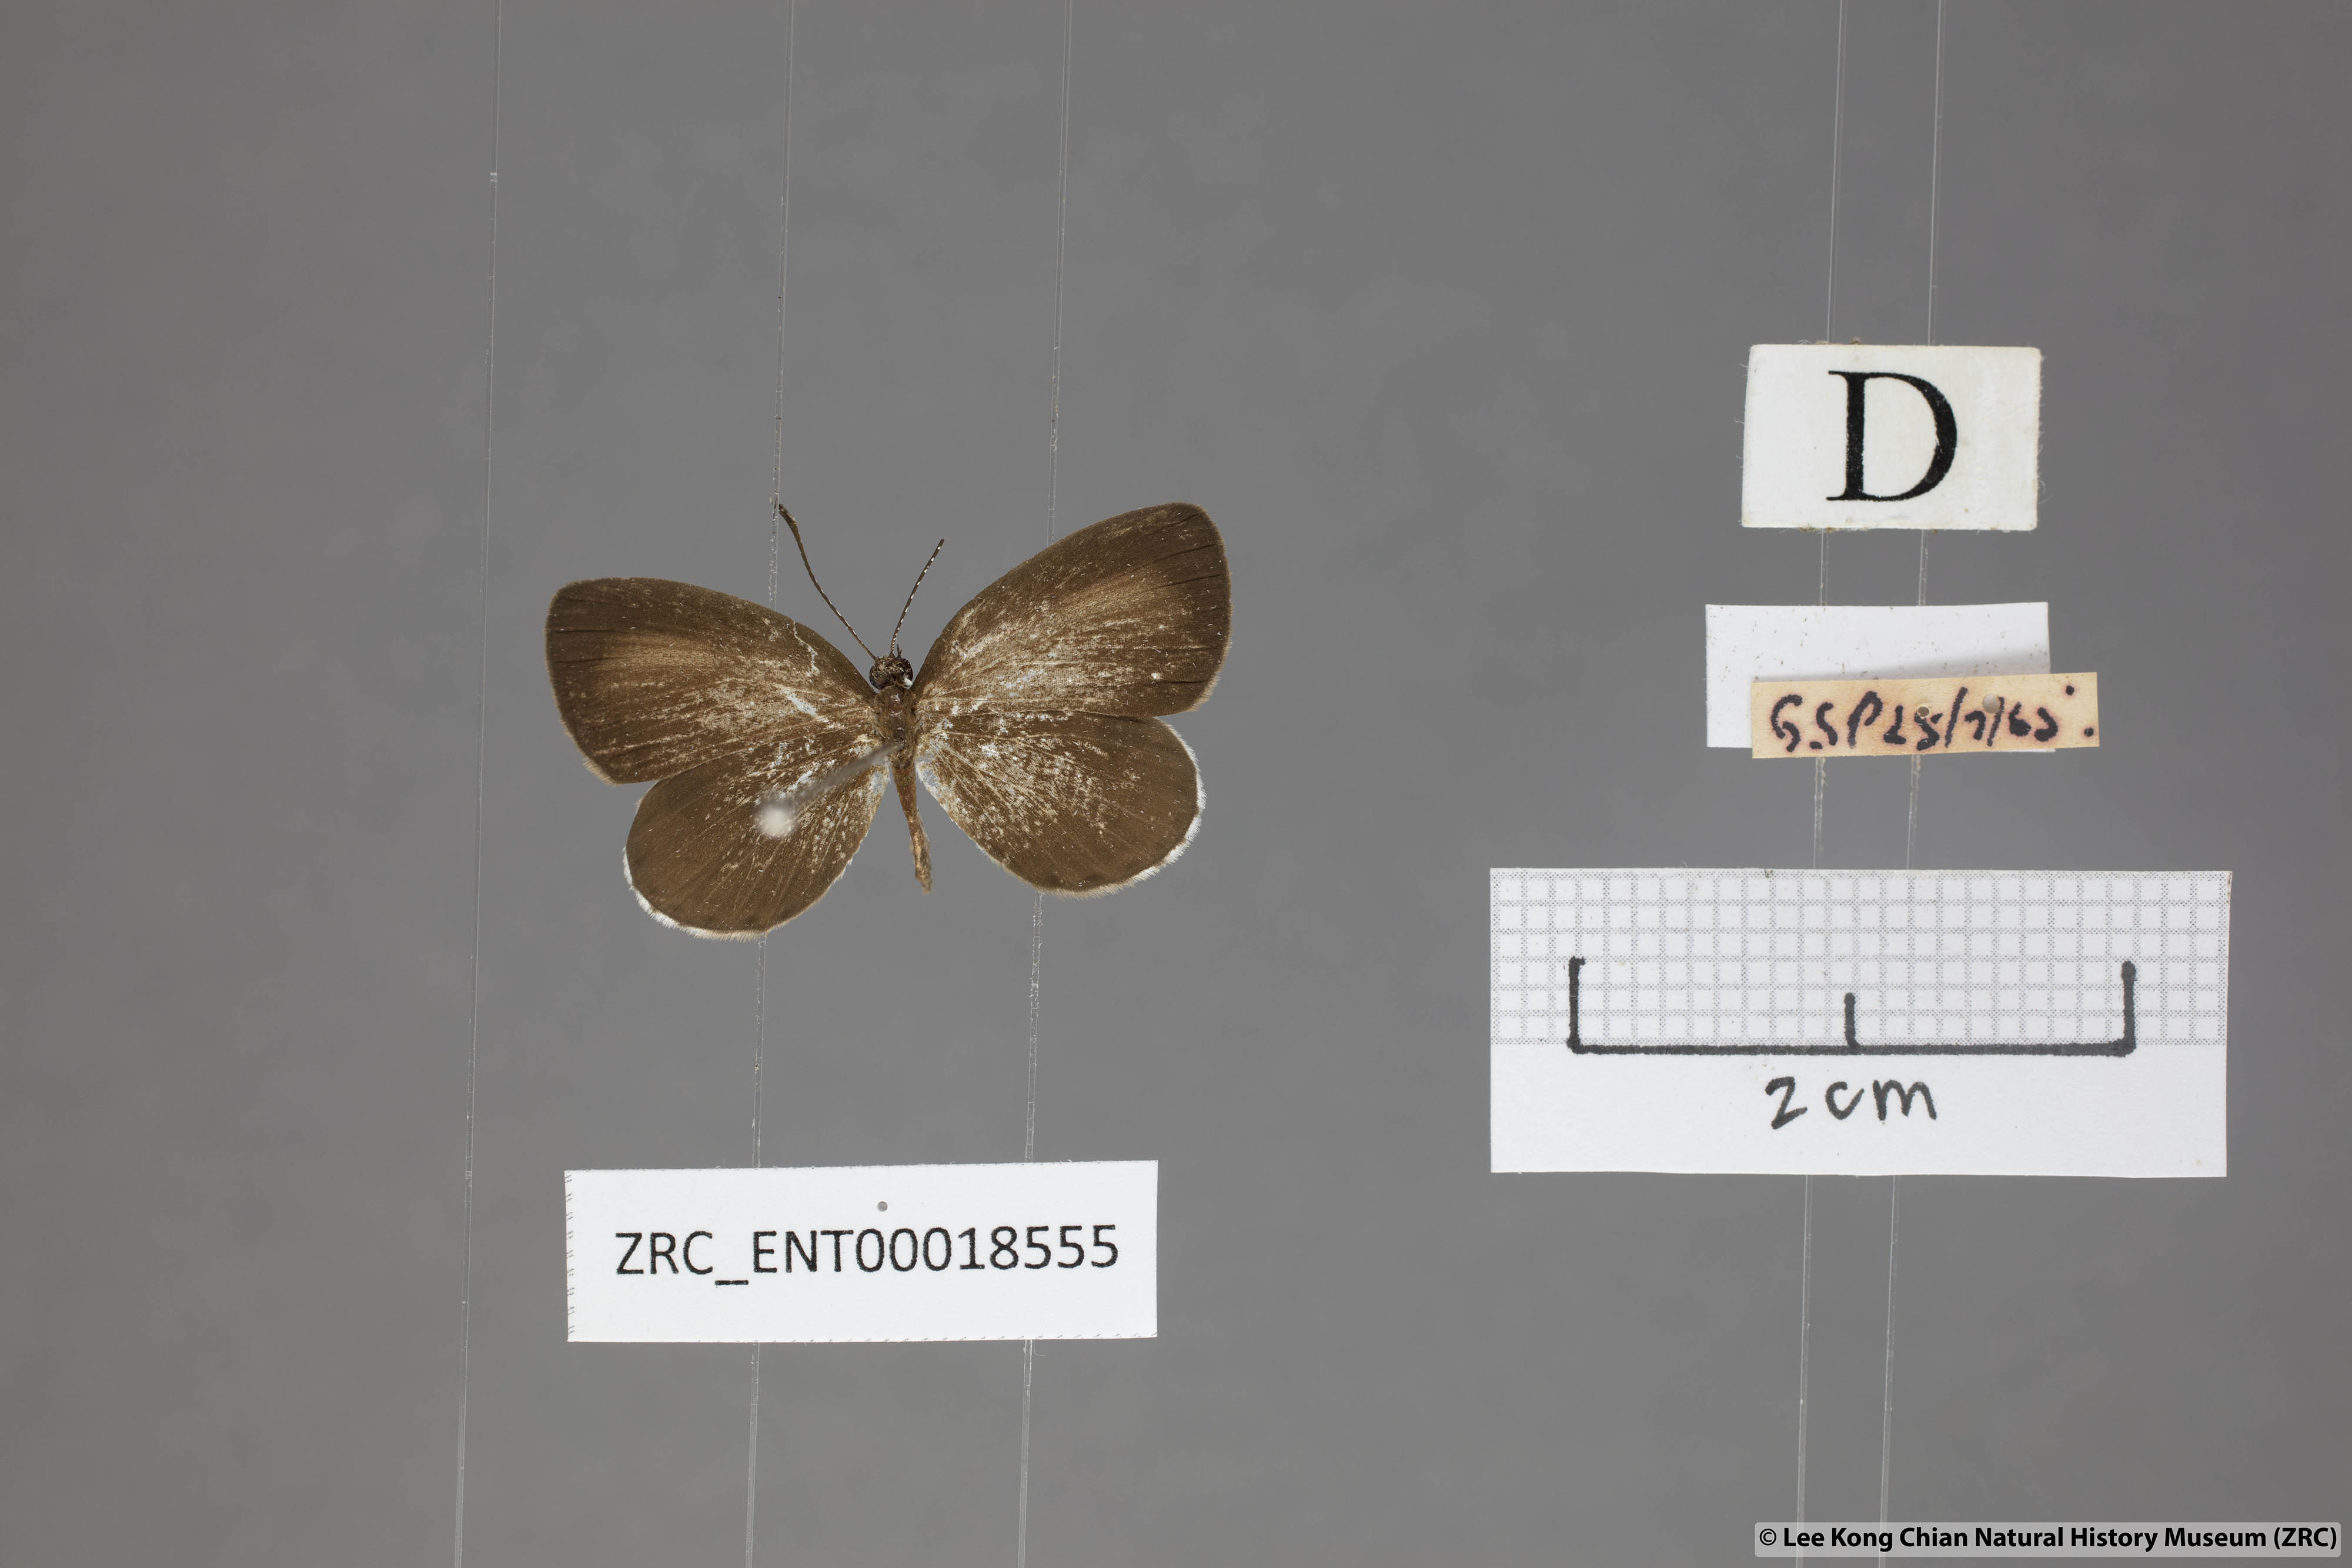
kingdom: Animalia
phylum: Arthropoda
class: Insecta
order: Lepidoptera
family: Lycaenidae
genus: Pithecops
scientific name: Pithecops corvus
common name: Forest quaker
